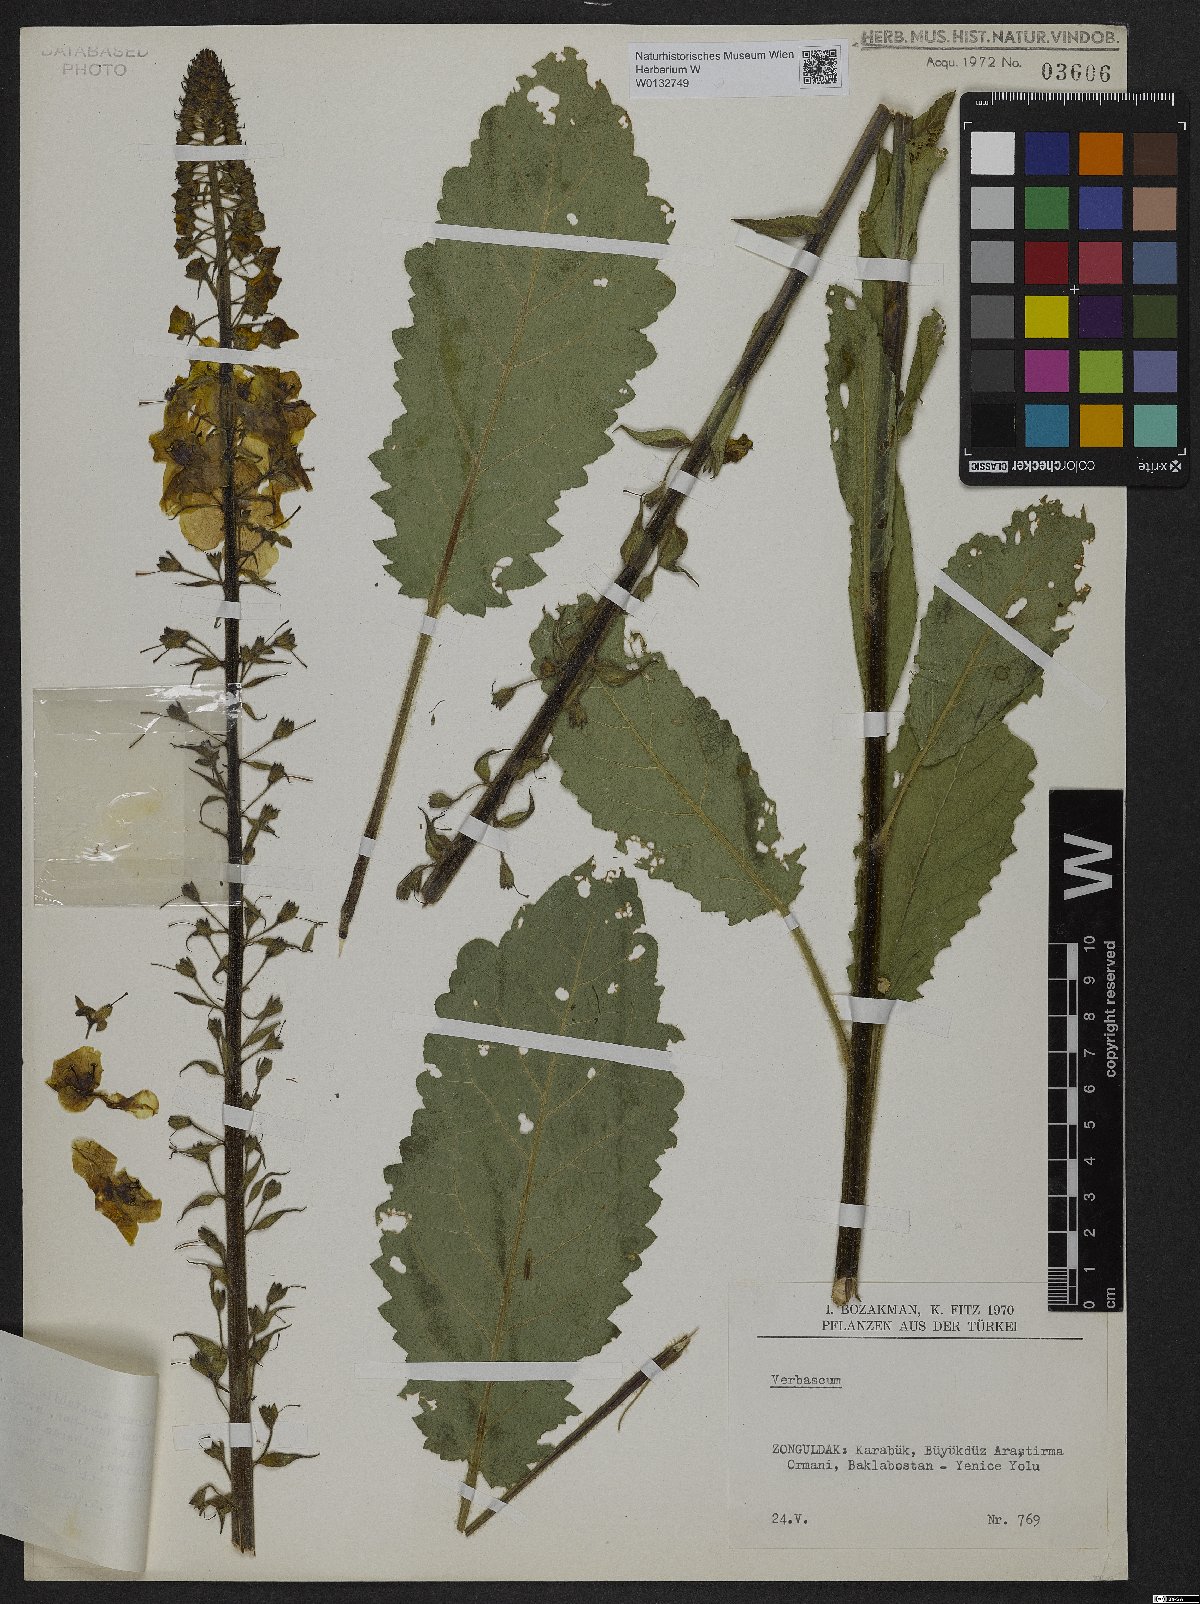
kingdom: Plantae
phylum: Tracheophyta
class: Magnoliopsida
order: Lamiales
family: Scrophulariaceae
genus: Verbascum
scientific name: Verbascum salgirensis
